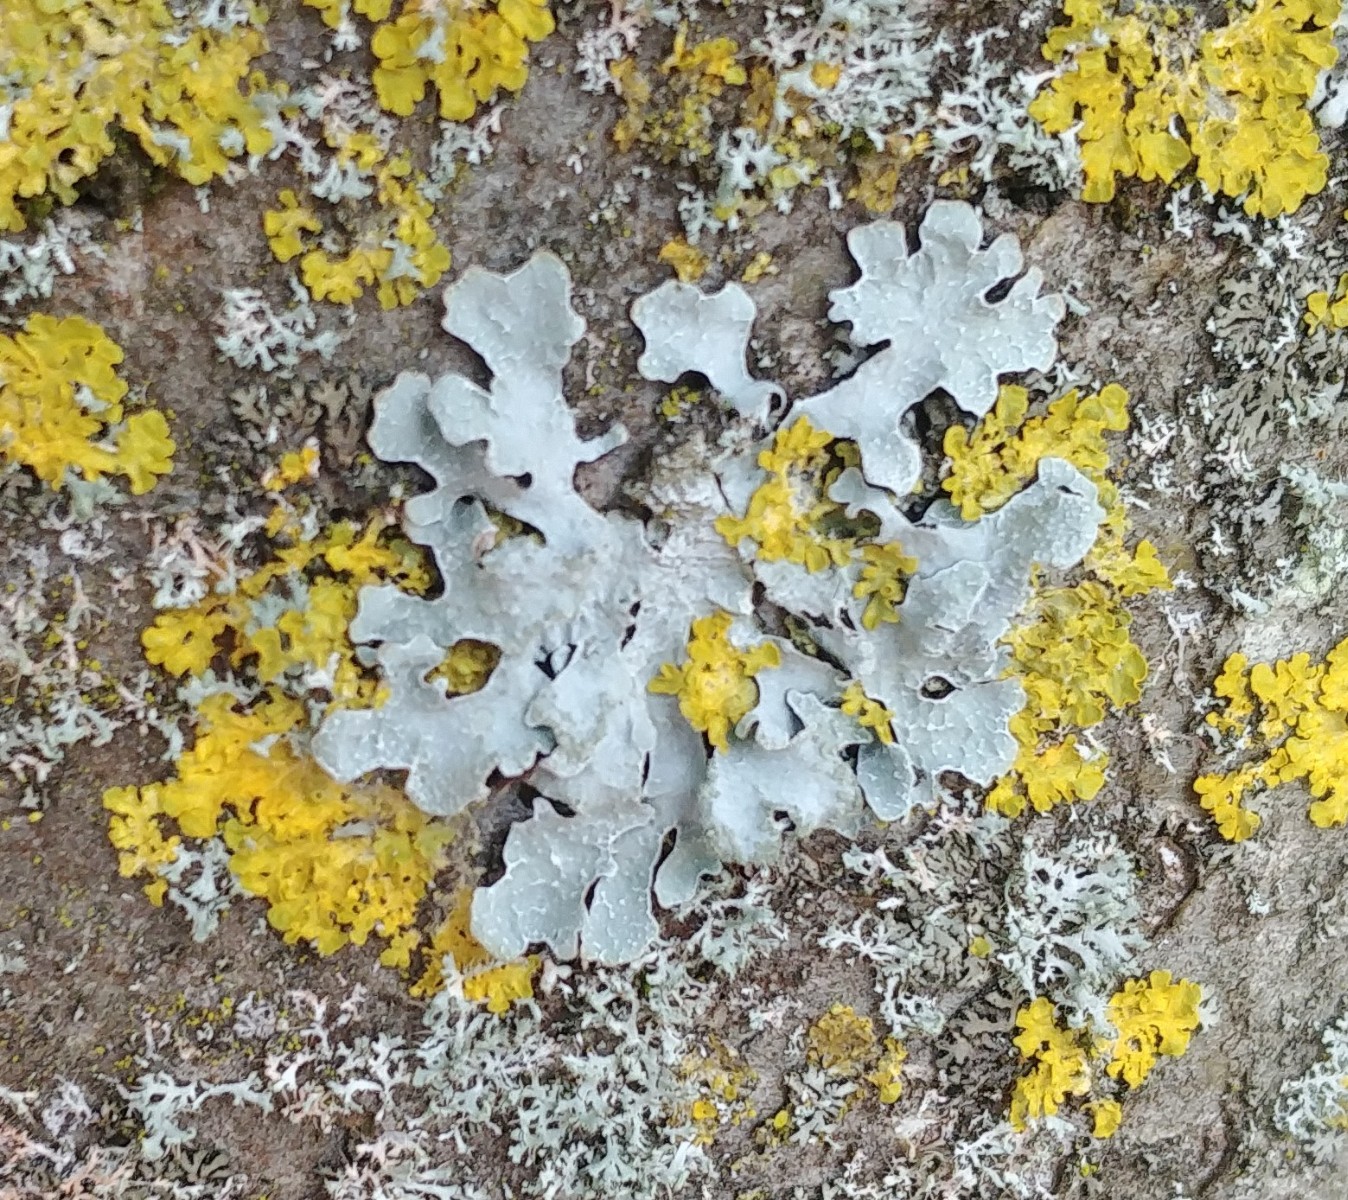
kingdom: Fungi
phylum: Ascomycota
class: Lecanoromycetes
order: Lecanorales
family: Parmeliaceae
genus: Parmelia
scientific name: Parmelia sulcata
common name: rynket skållav
